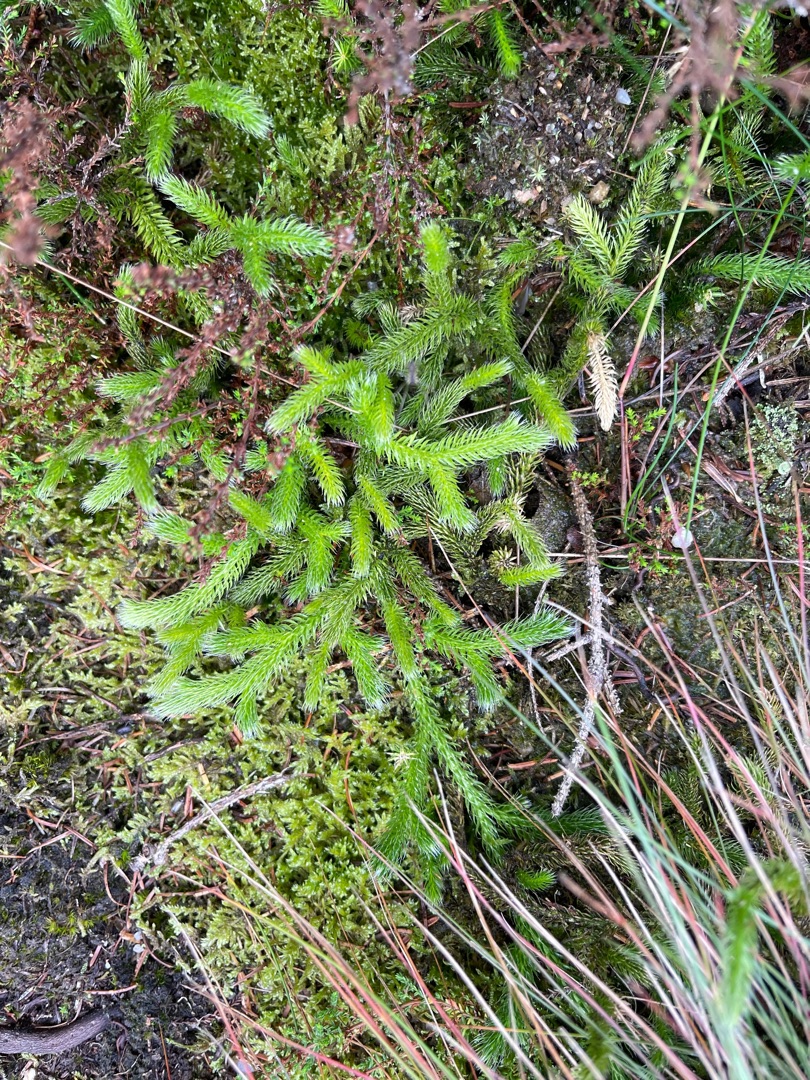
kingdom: Plantae
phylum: Tracheophyta
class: Lycopodiopsida
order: Lycopodiales
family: Lycopodiaceae
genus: Lycopodium
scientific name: Lycopodium clavatum
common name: Almindelig ulvefod
